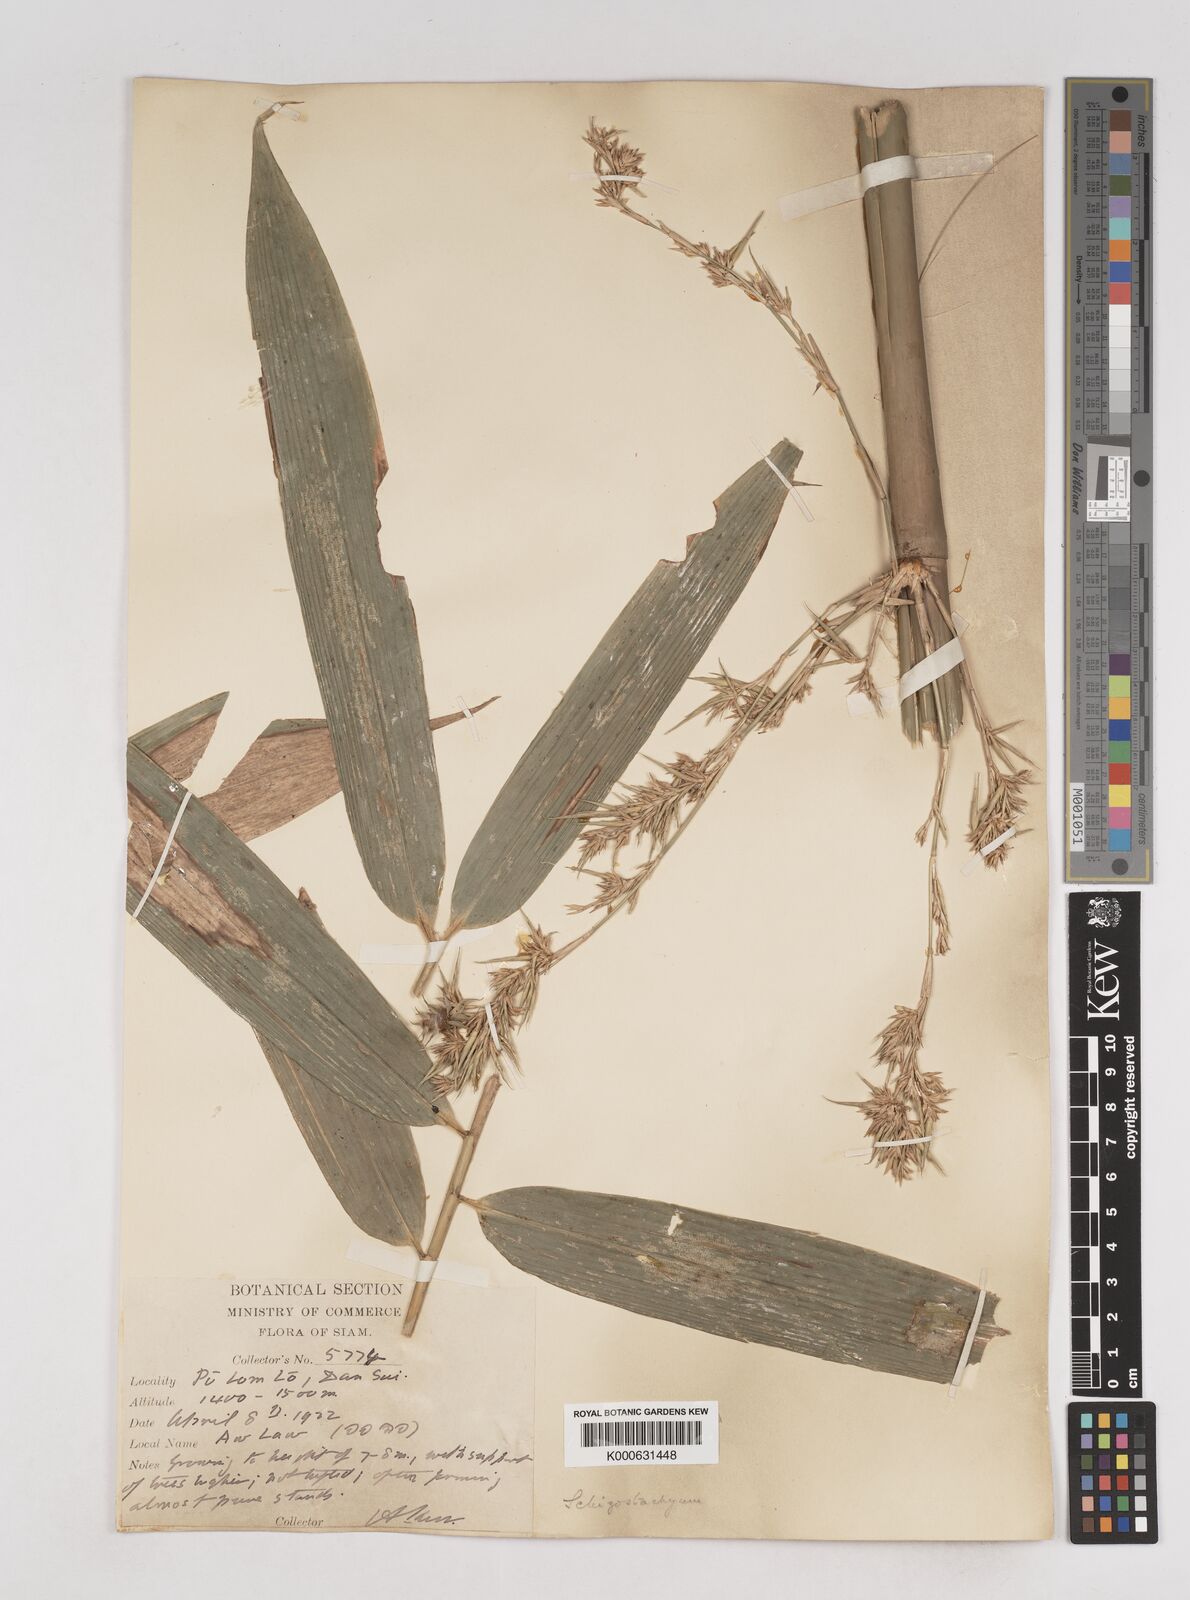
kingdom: Plantae
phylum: Tracheophyta
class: Liliopsida
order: Poales
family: Poaceae
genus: Schizostachyum
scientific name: Schizostachyum
